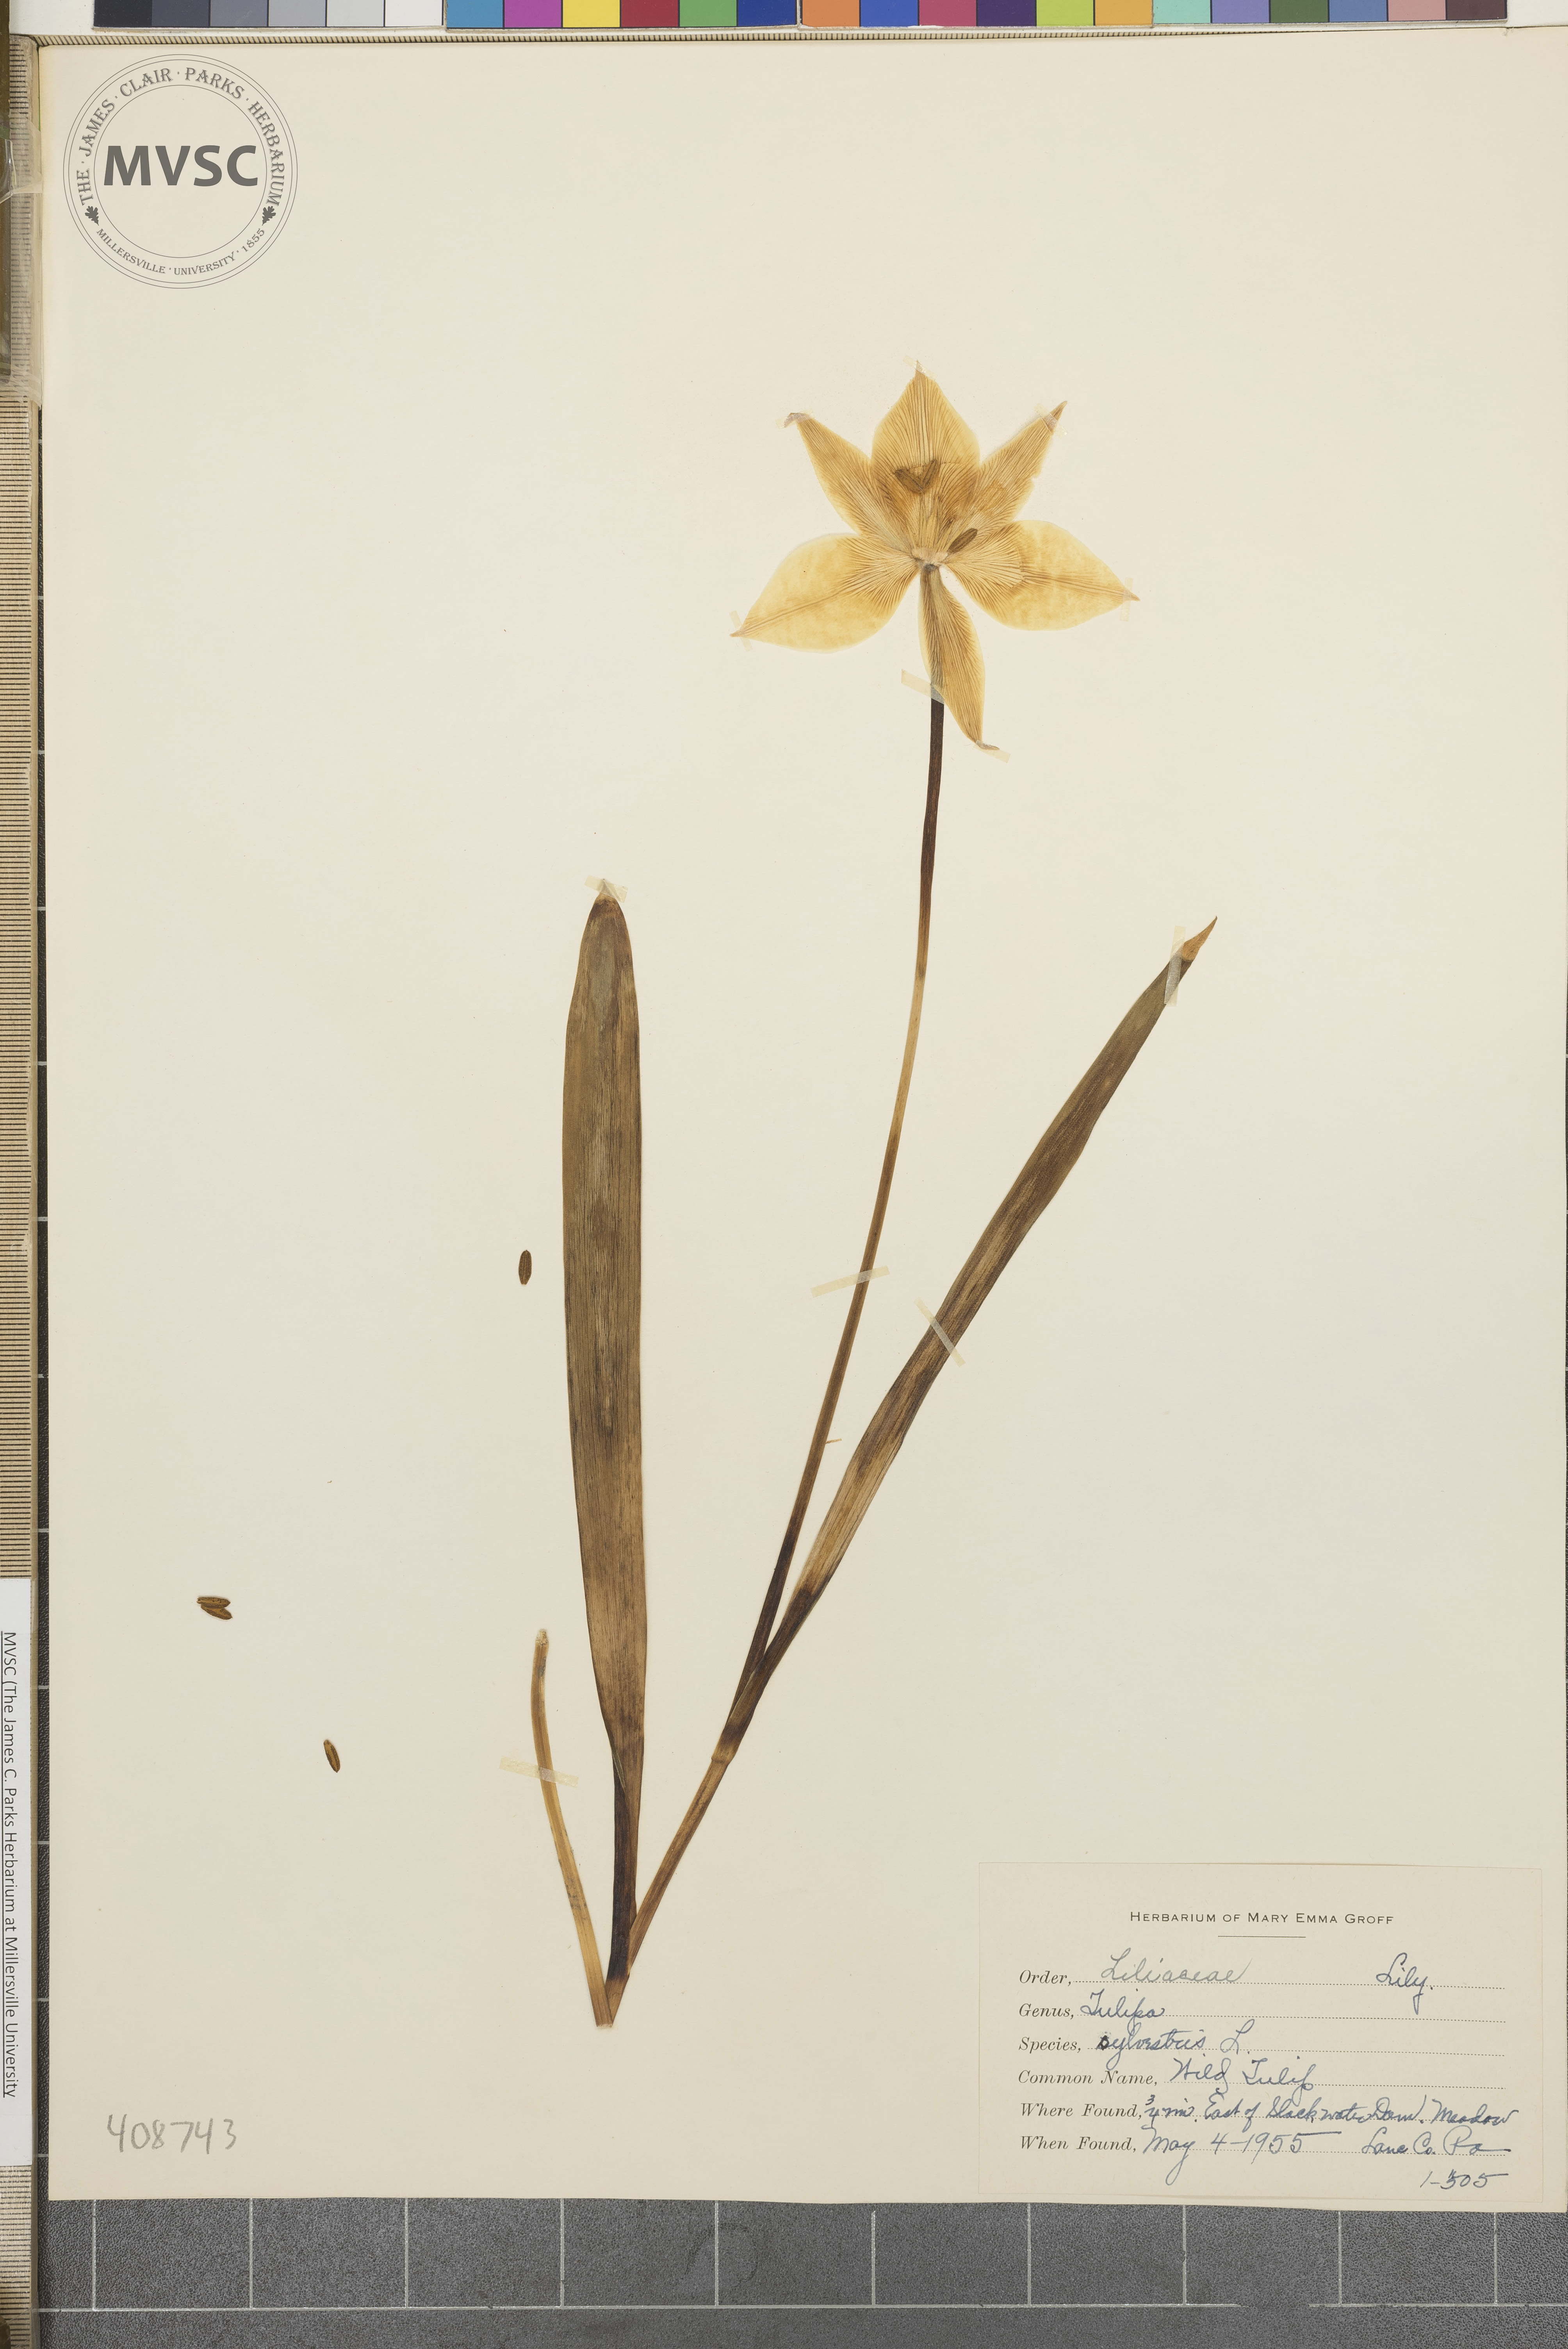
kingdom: Plantae
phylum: Tracheophyta
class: Liliopsida
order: Liliales
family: Liliaceae
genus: Tulipa
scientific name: Tulipa sylvestris
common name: Wild Tulip
